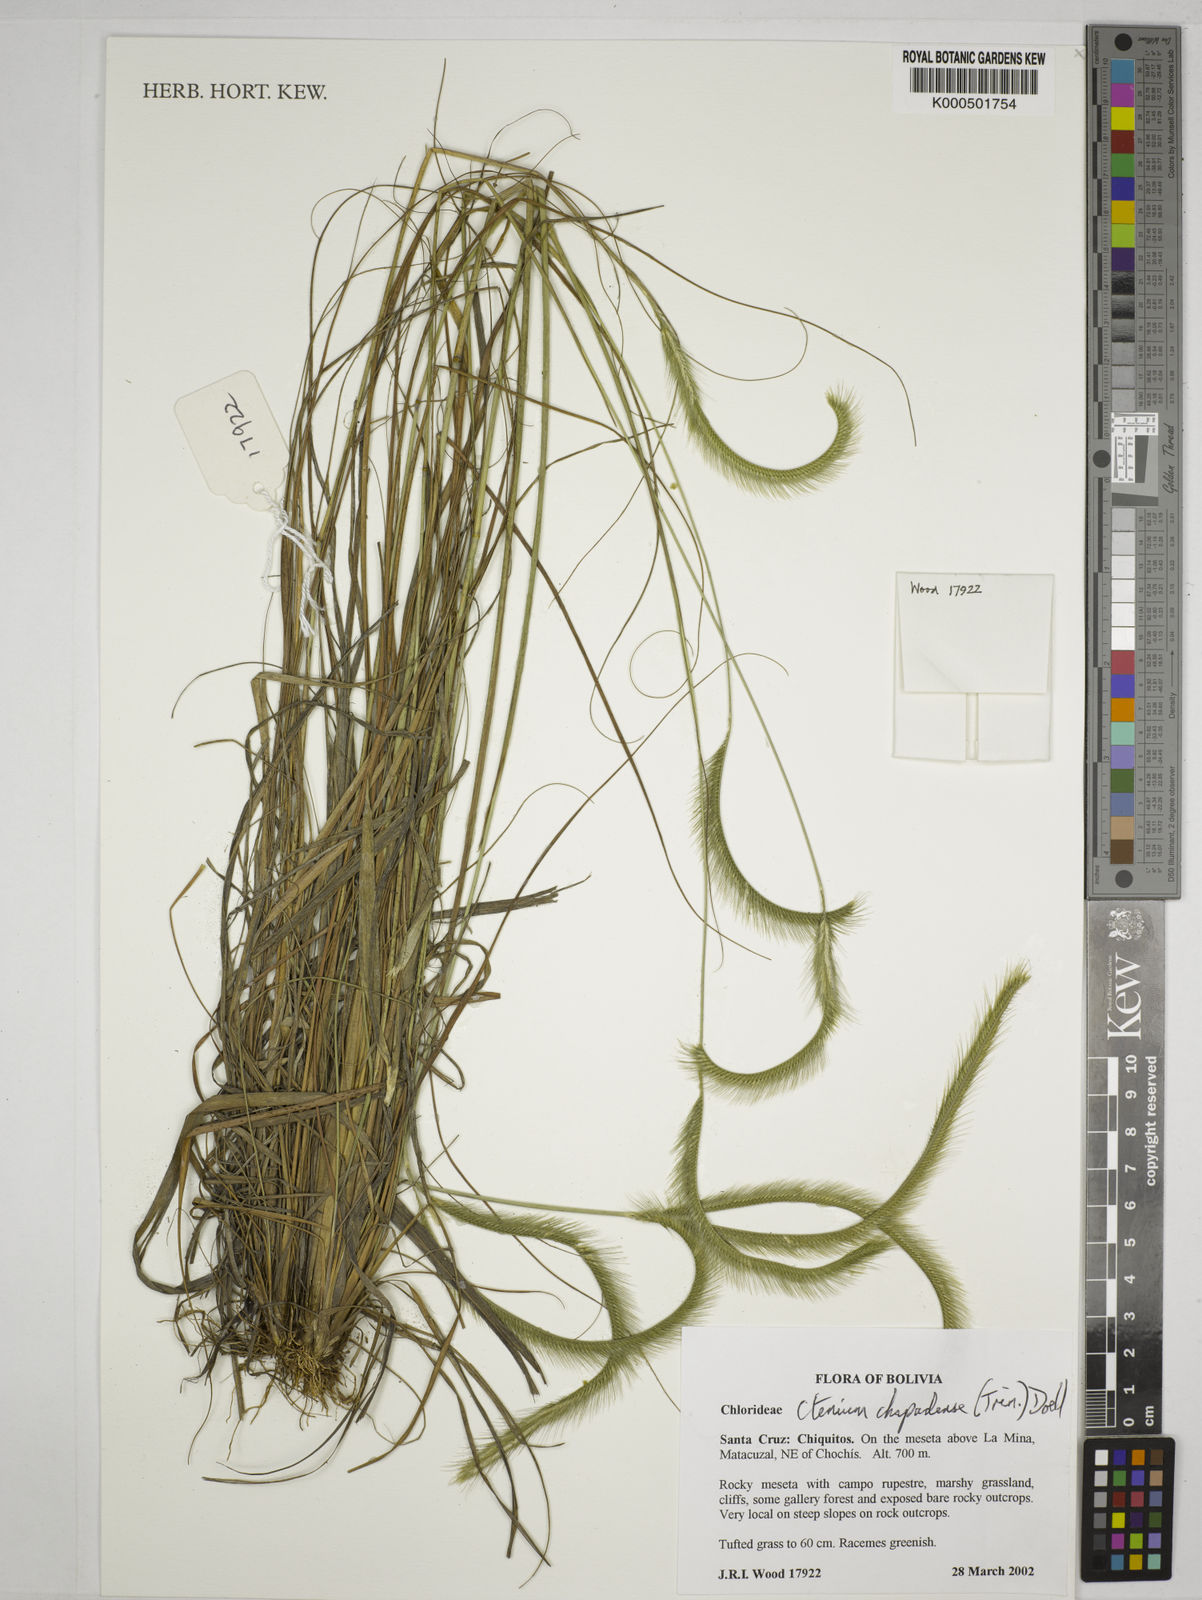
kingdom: Plantae
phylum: Tracheophyta
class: Liliopsida
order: Poales
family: Poaceae
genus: Ctenium
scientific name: Ctenium
